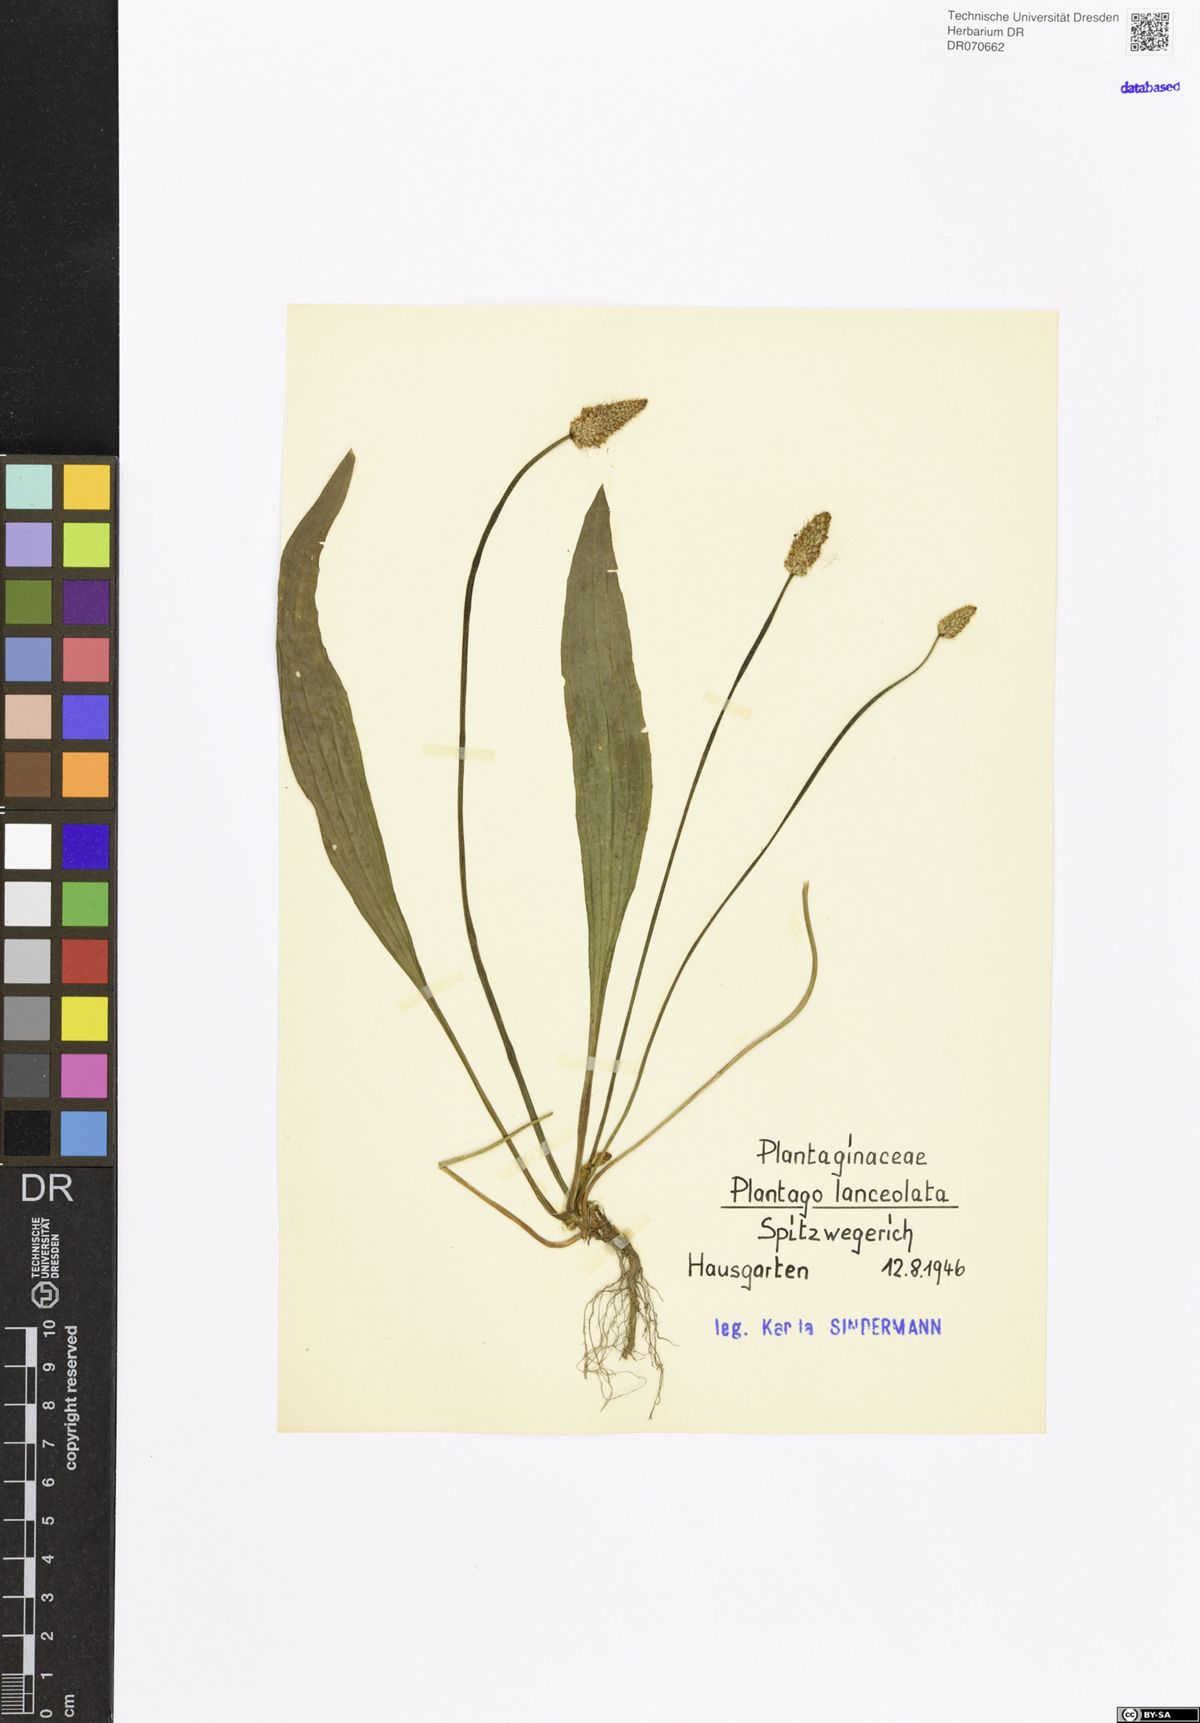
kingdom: Plantae
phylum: Tracheophyta
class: Magnoliopsida
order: Lamiales
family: Plantaginaceae
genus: Plantago
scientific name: Plantago lanceolata
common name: Ribwort plantain
